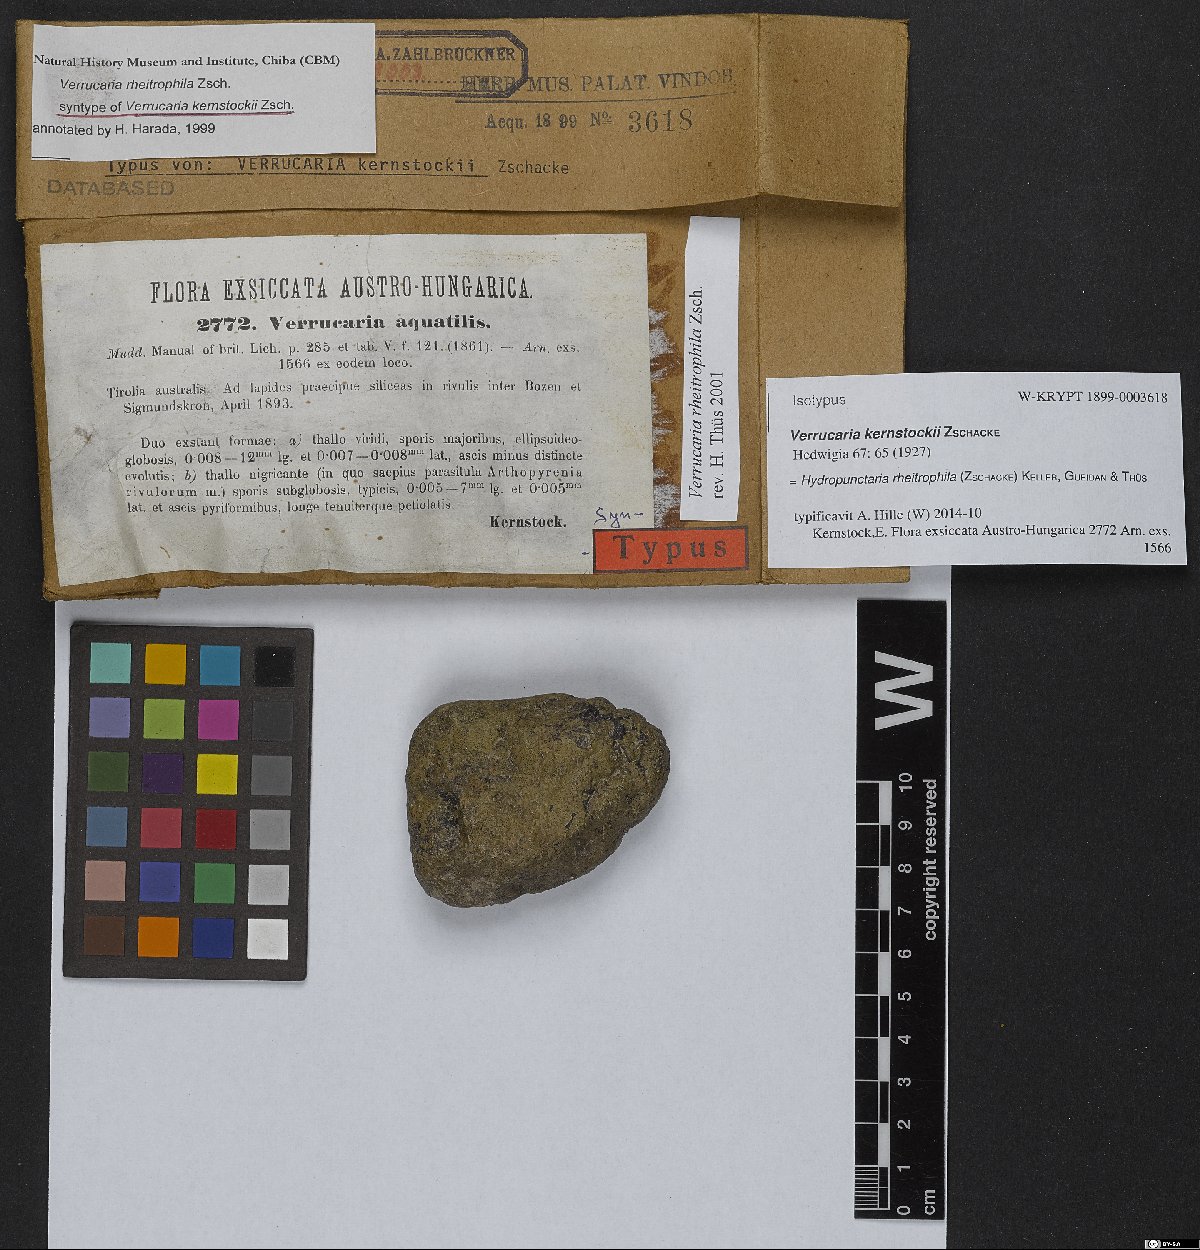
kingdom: Fungi
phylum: Ascomycota
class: Eurotiomycetes
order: Verrucariales
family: Verrucariaceae
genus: Hydropunctaria
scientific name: Hydropunctaria rheitrophila
